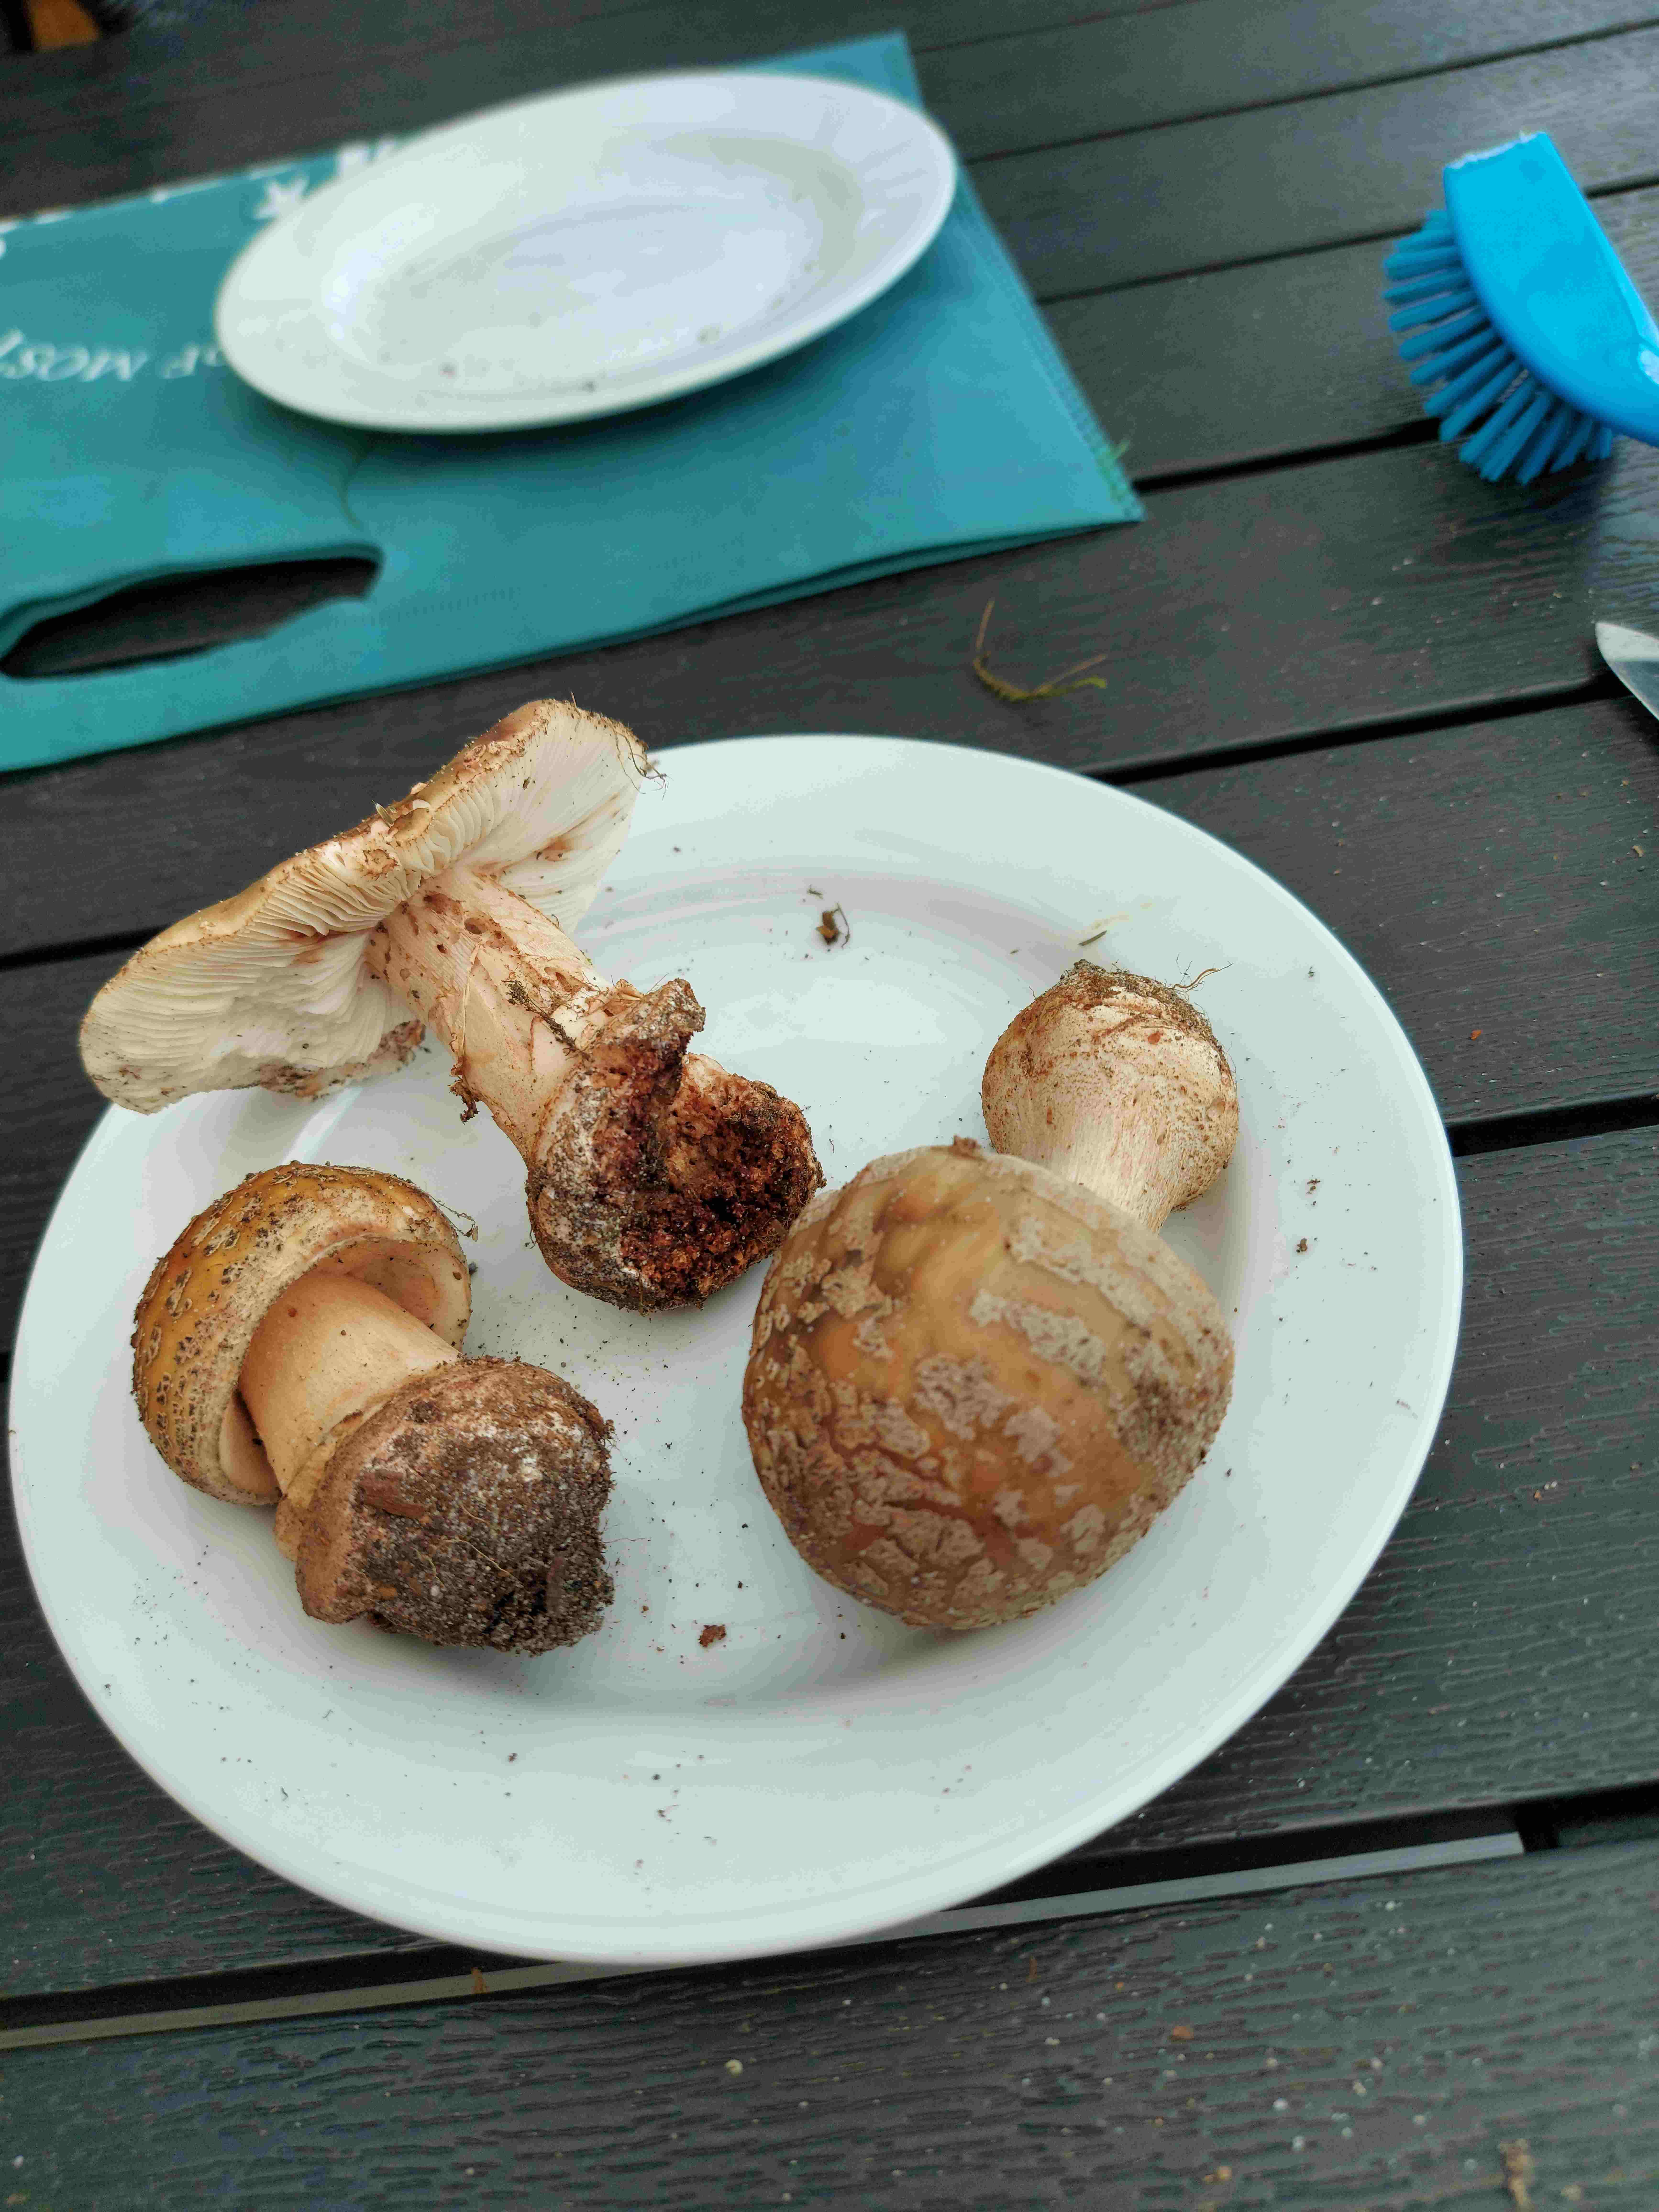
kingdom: Fungi
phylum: Basidiomycota
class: Agaricomycetes
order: Agaricales
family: Amanitaceae
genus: Amanita
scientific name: Amanita rubescens
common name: rødmende fluesvamp
